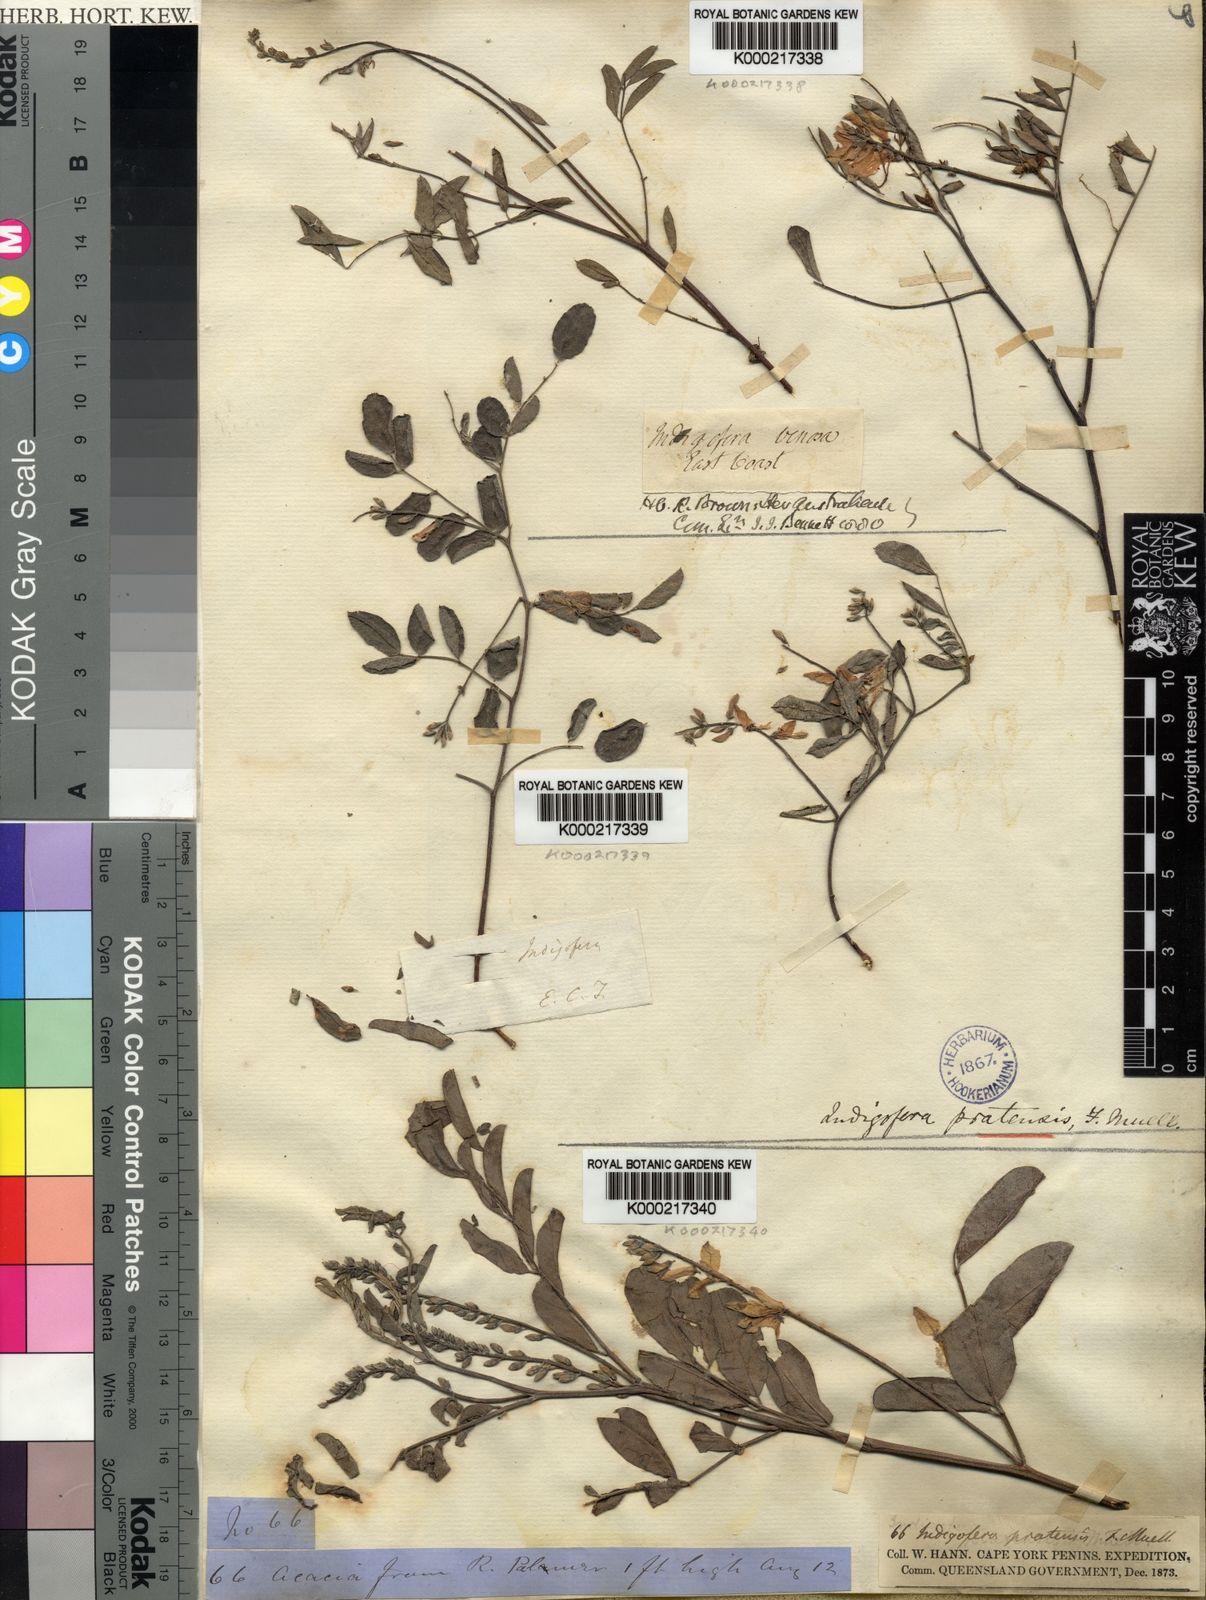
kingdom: Plantae
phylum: Tracheophyta
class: Magnoliopsida
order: Fabales
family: Fabaceae
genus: Indigofera
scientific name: Indigofera pratensis
